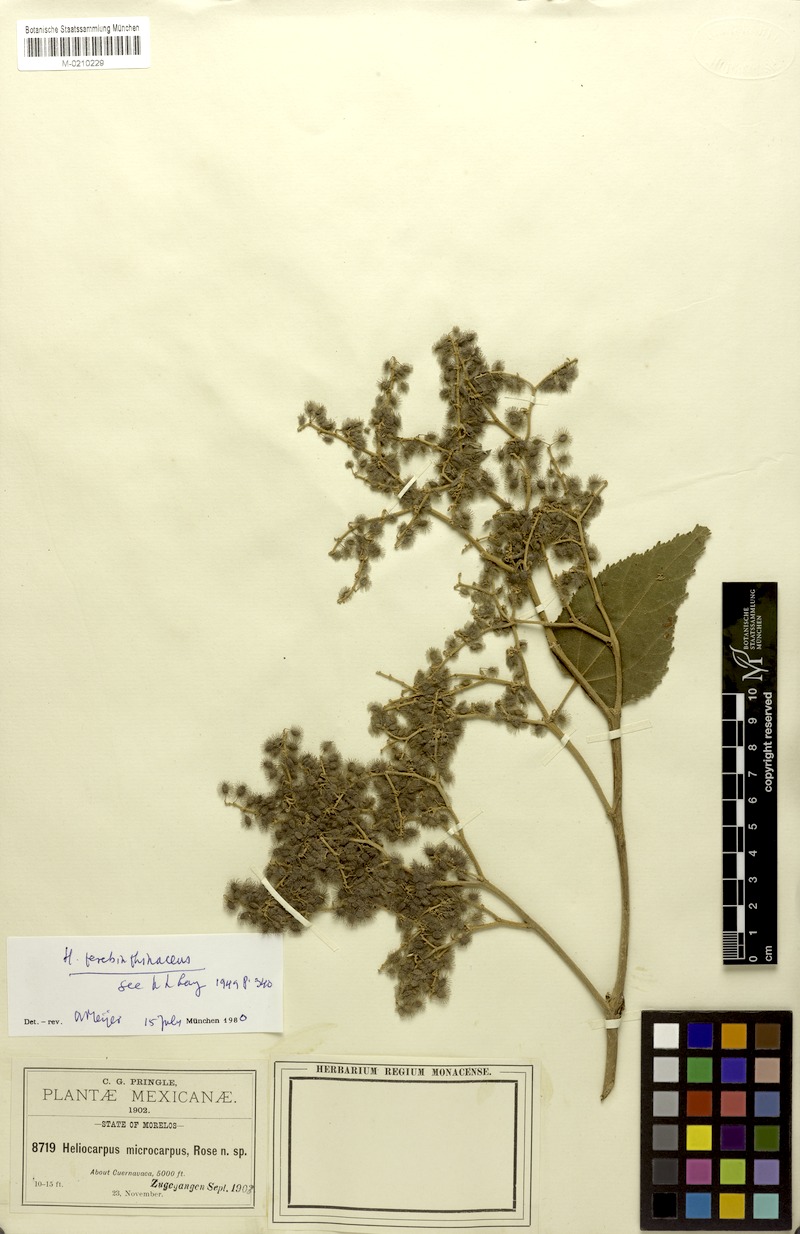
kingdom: Plantae
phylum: Tracheophyta
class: Magnoliopsida
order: Malvales
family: Malvaceae
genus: Heliocarpus
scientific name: Heliocarpus terebinthinaceus
